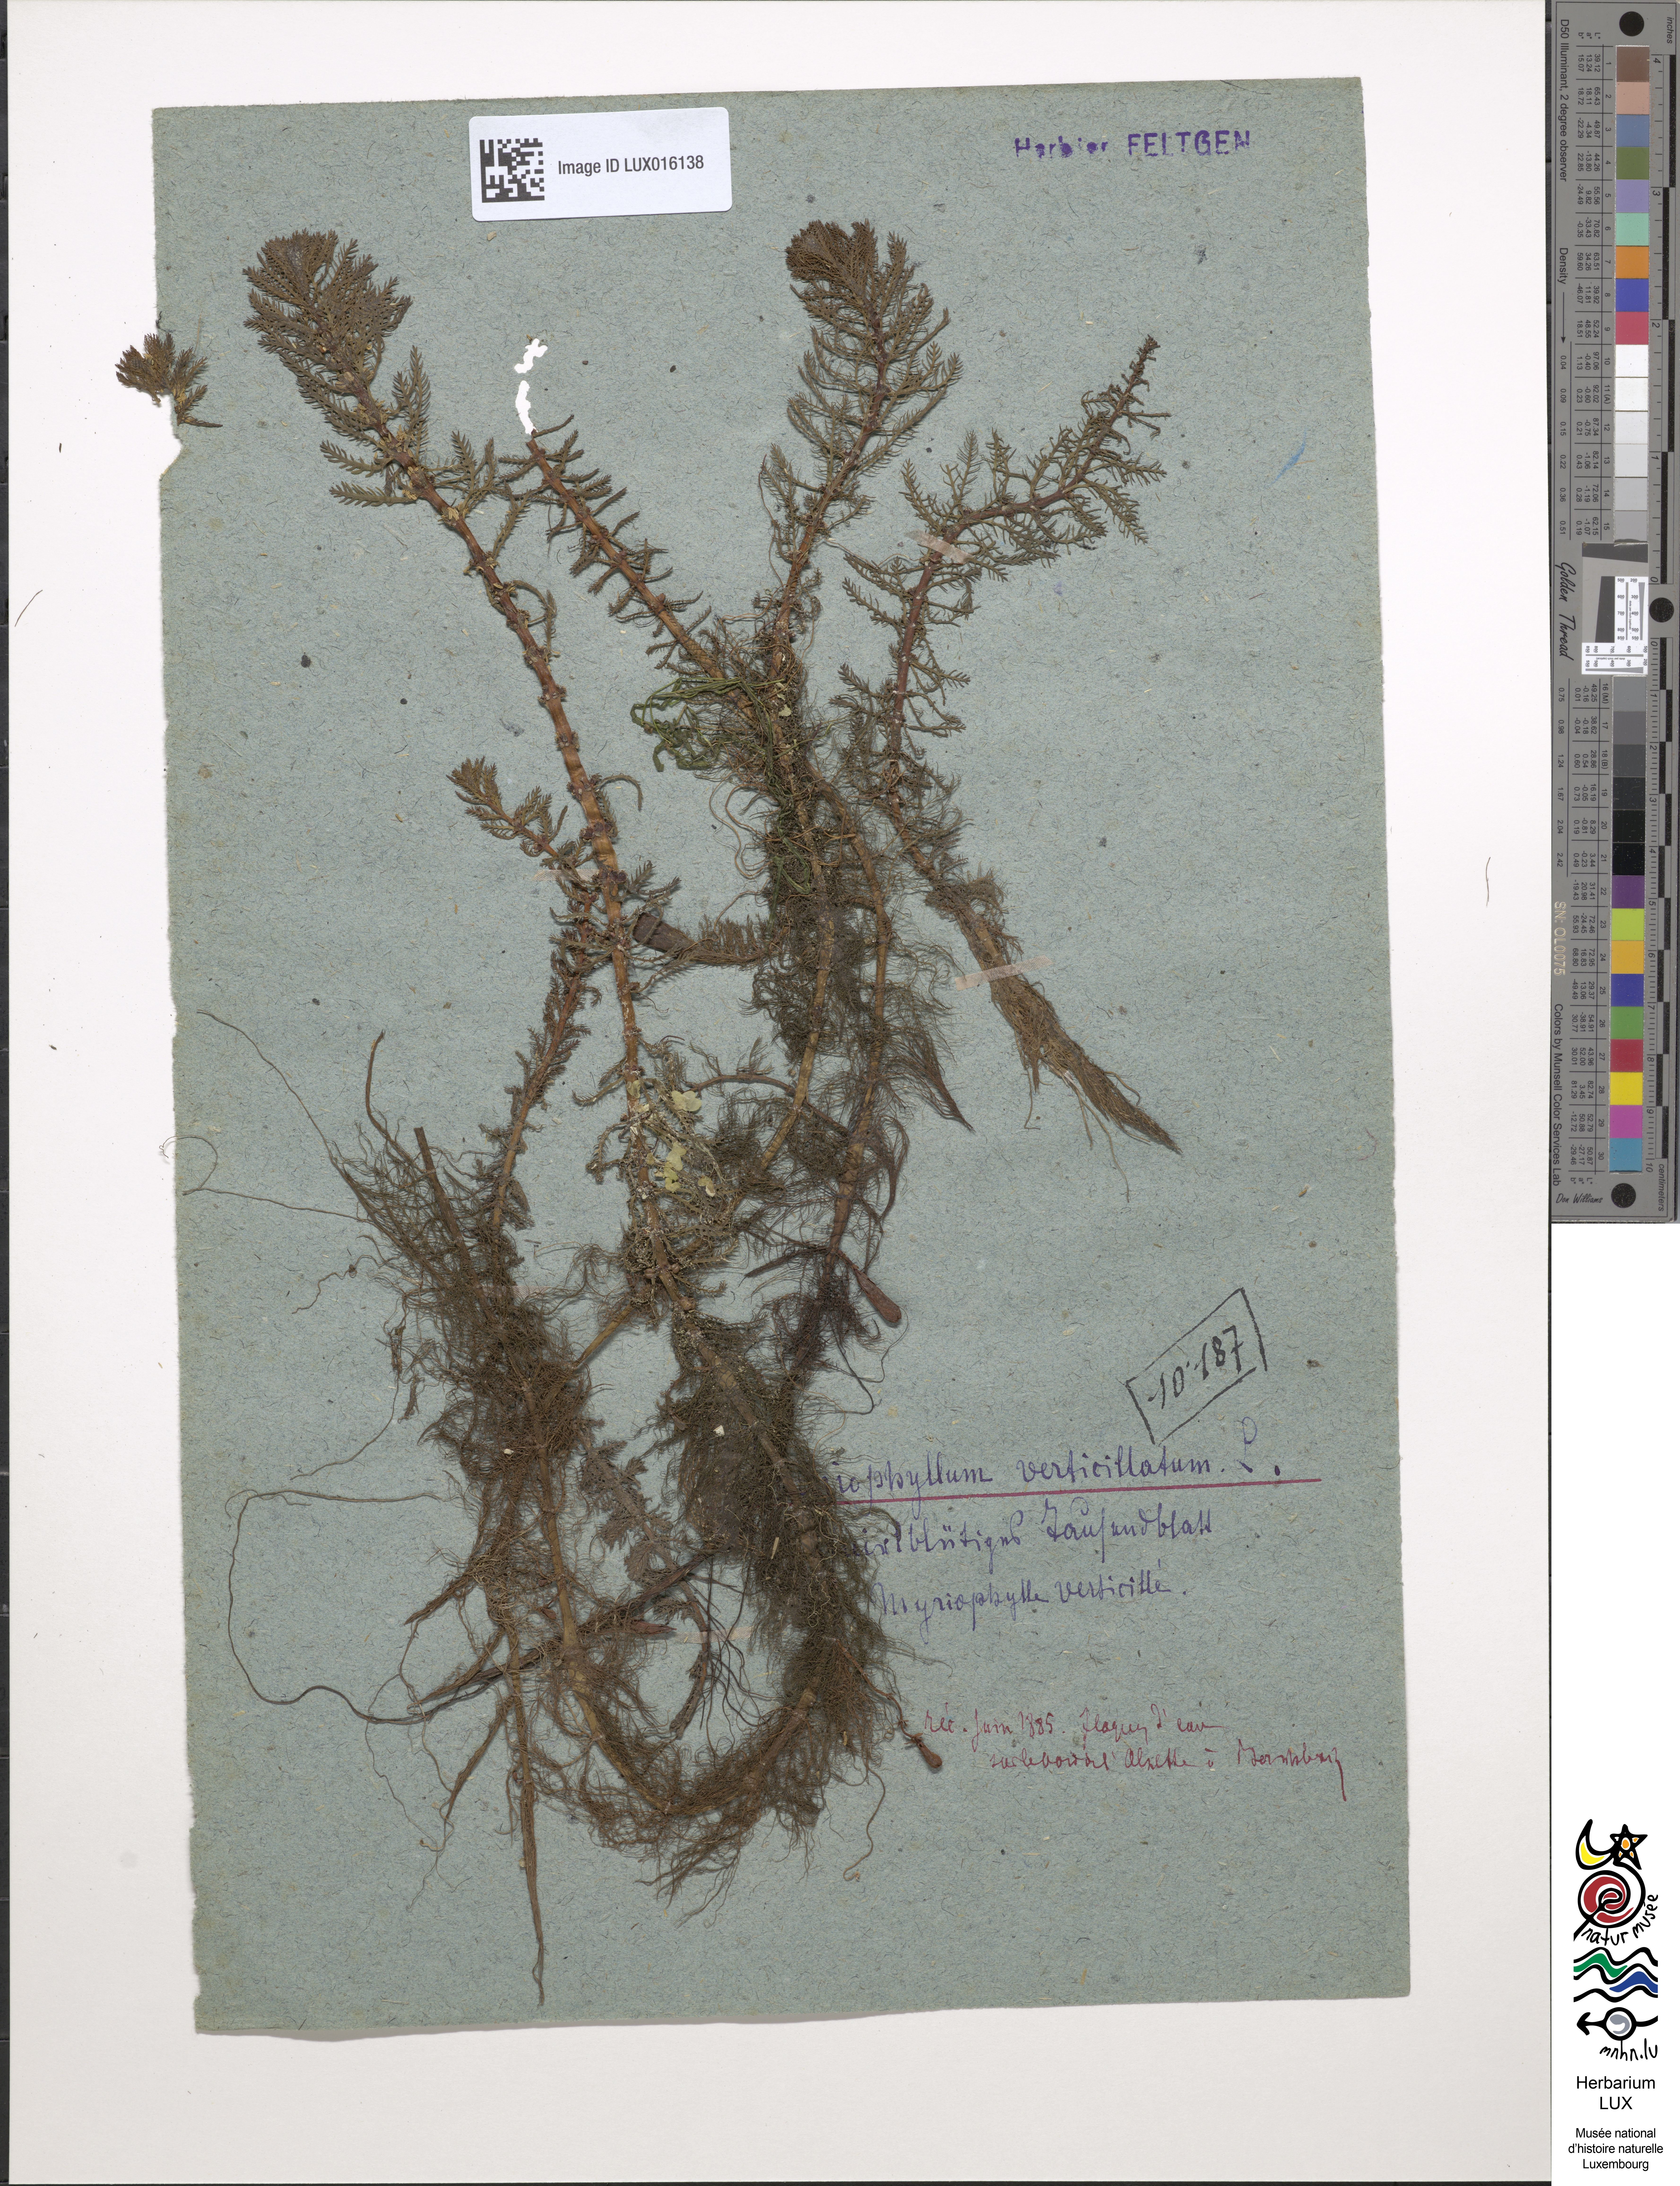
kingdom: Plantae
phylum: Tracheophyta
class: Magnoliopsida
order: Saxifragales
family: Haloragaceae
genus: Myriophyllum
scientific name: Myriophyllum verticillatum
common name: Whorled water-milfoil
